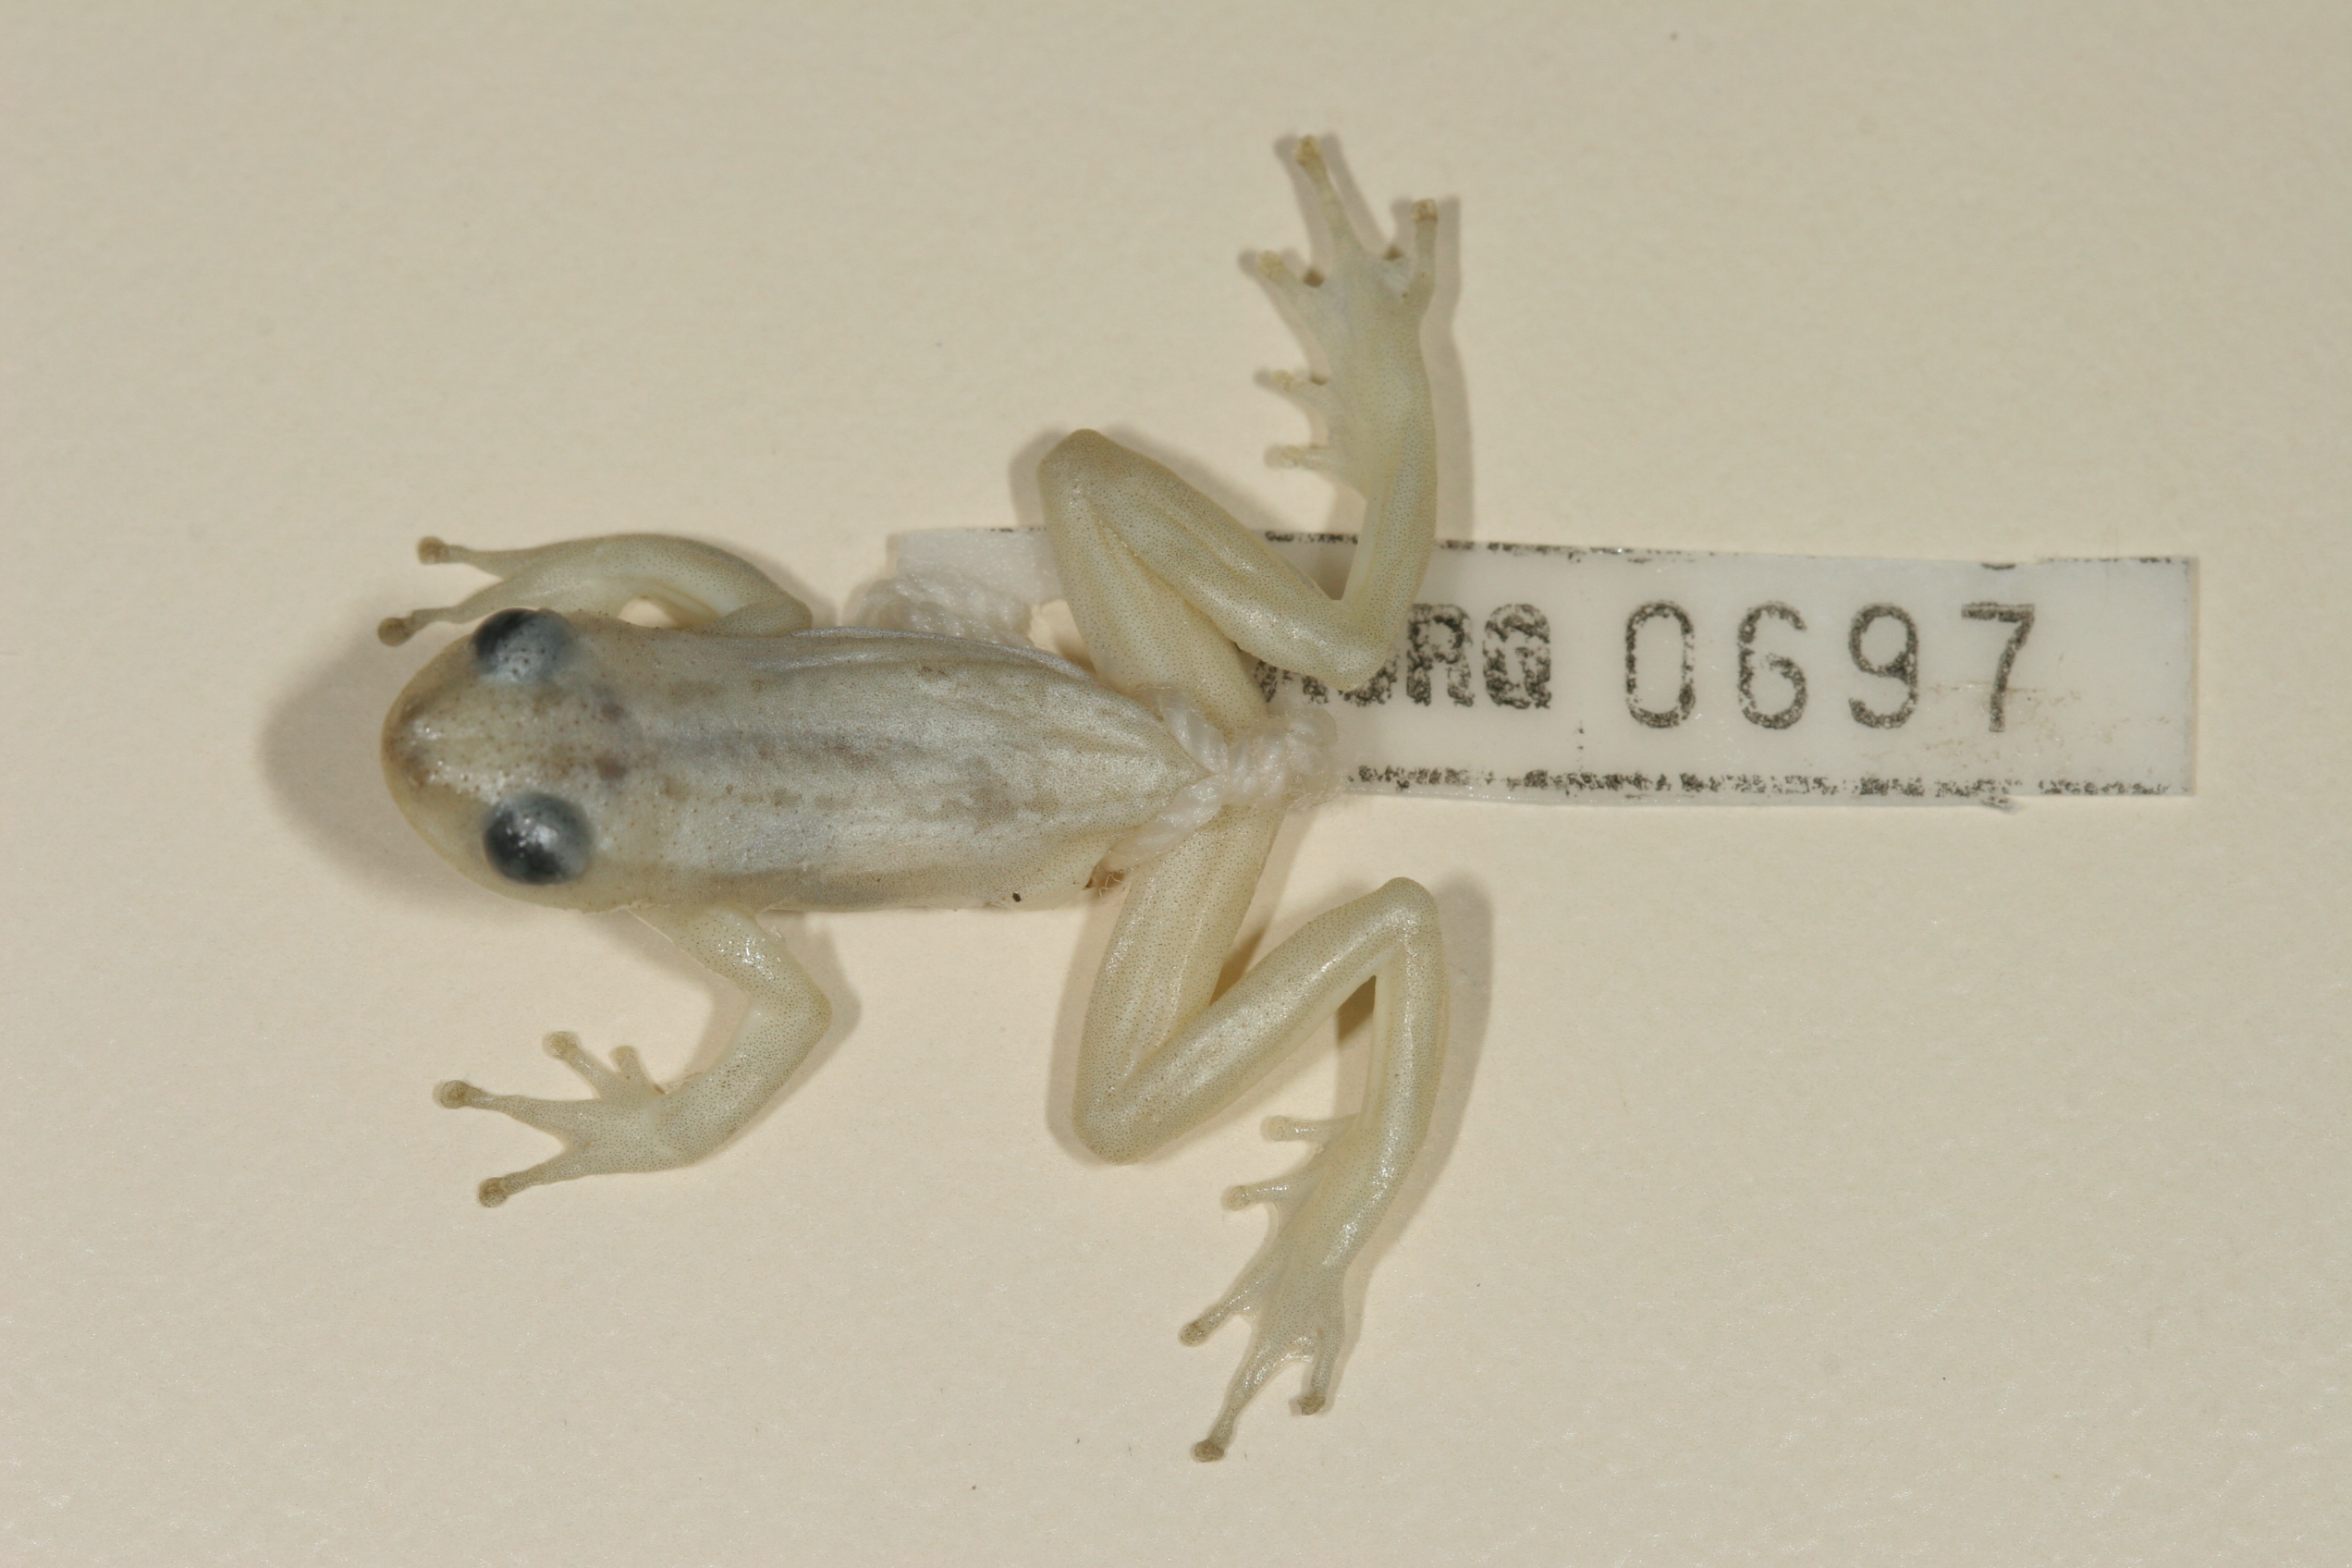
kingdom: Animalia
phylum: Chordata
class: Amphibia
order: Anura
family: Hyperoliidae
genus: Afrixalus
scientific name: Afrixalus delicatus
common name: Delicate leaf-folding frog
